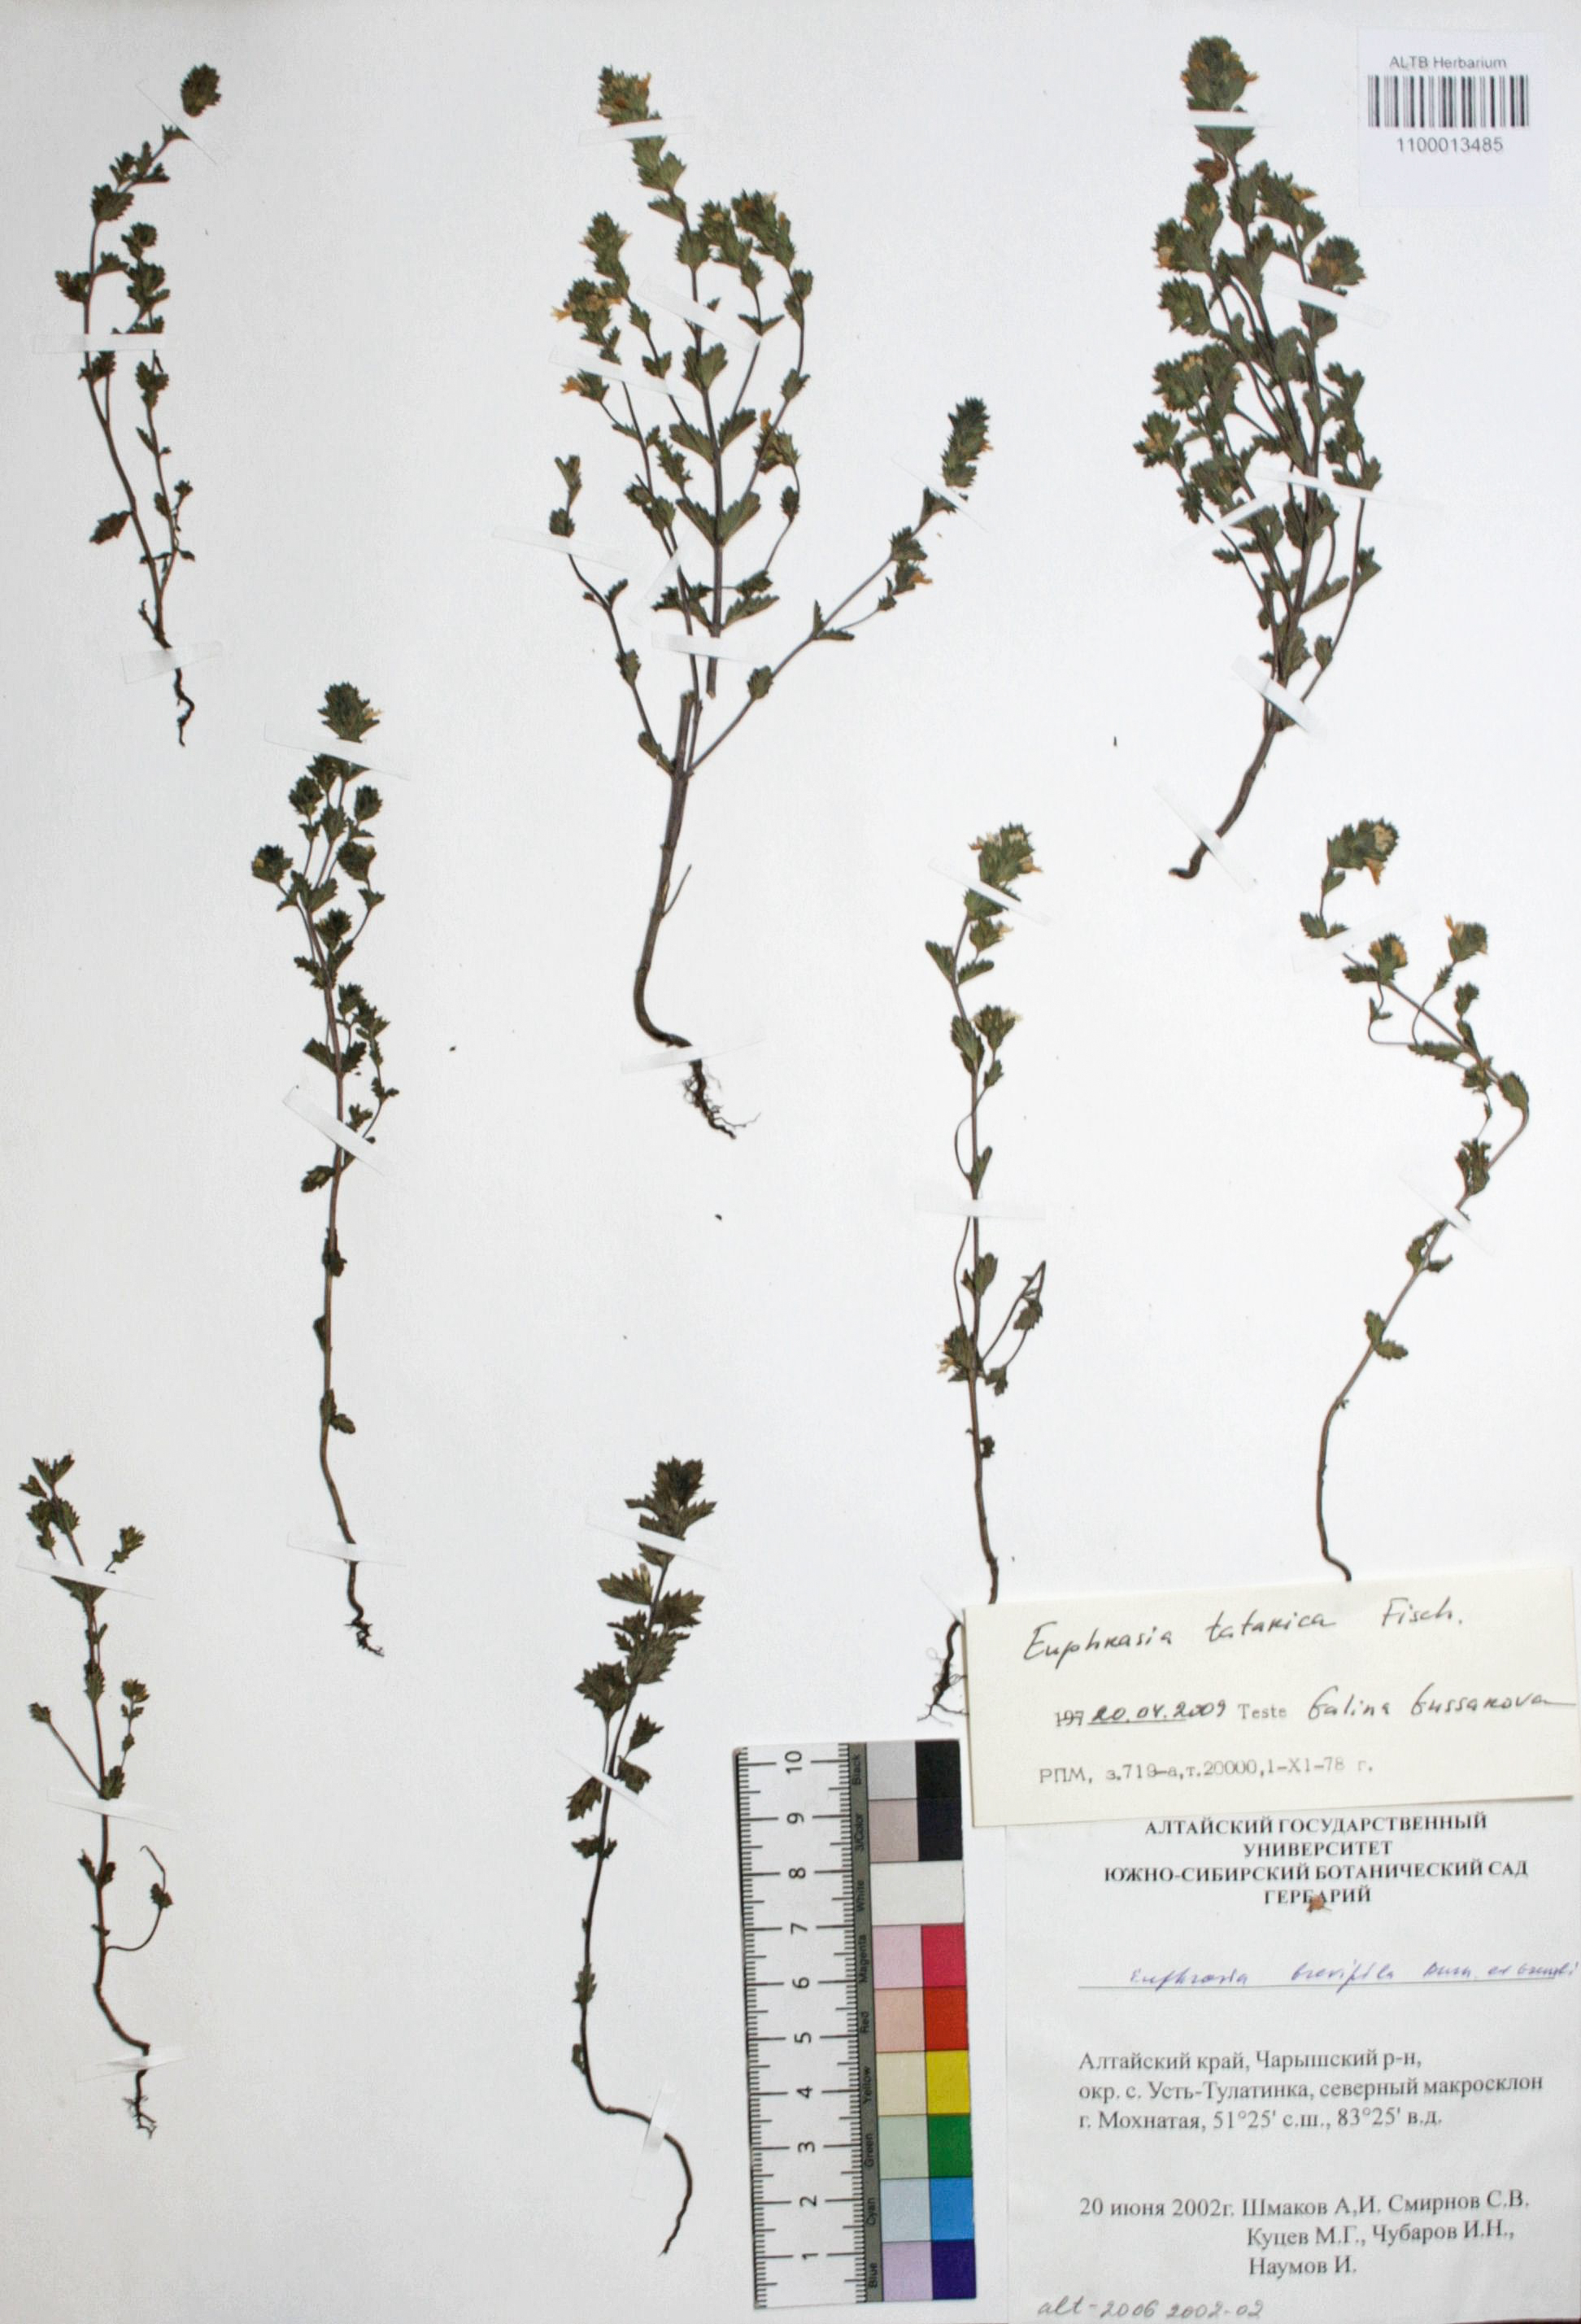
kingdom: Plantae
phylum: Tracheophyta
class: Magnoliopsida
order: Lamiales
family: Orobanchaceae
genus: Euphrasia
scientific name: Euphrasia pectinata
